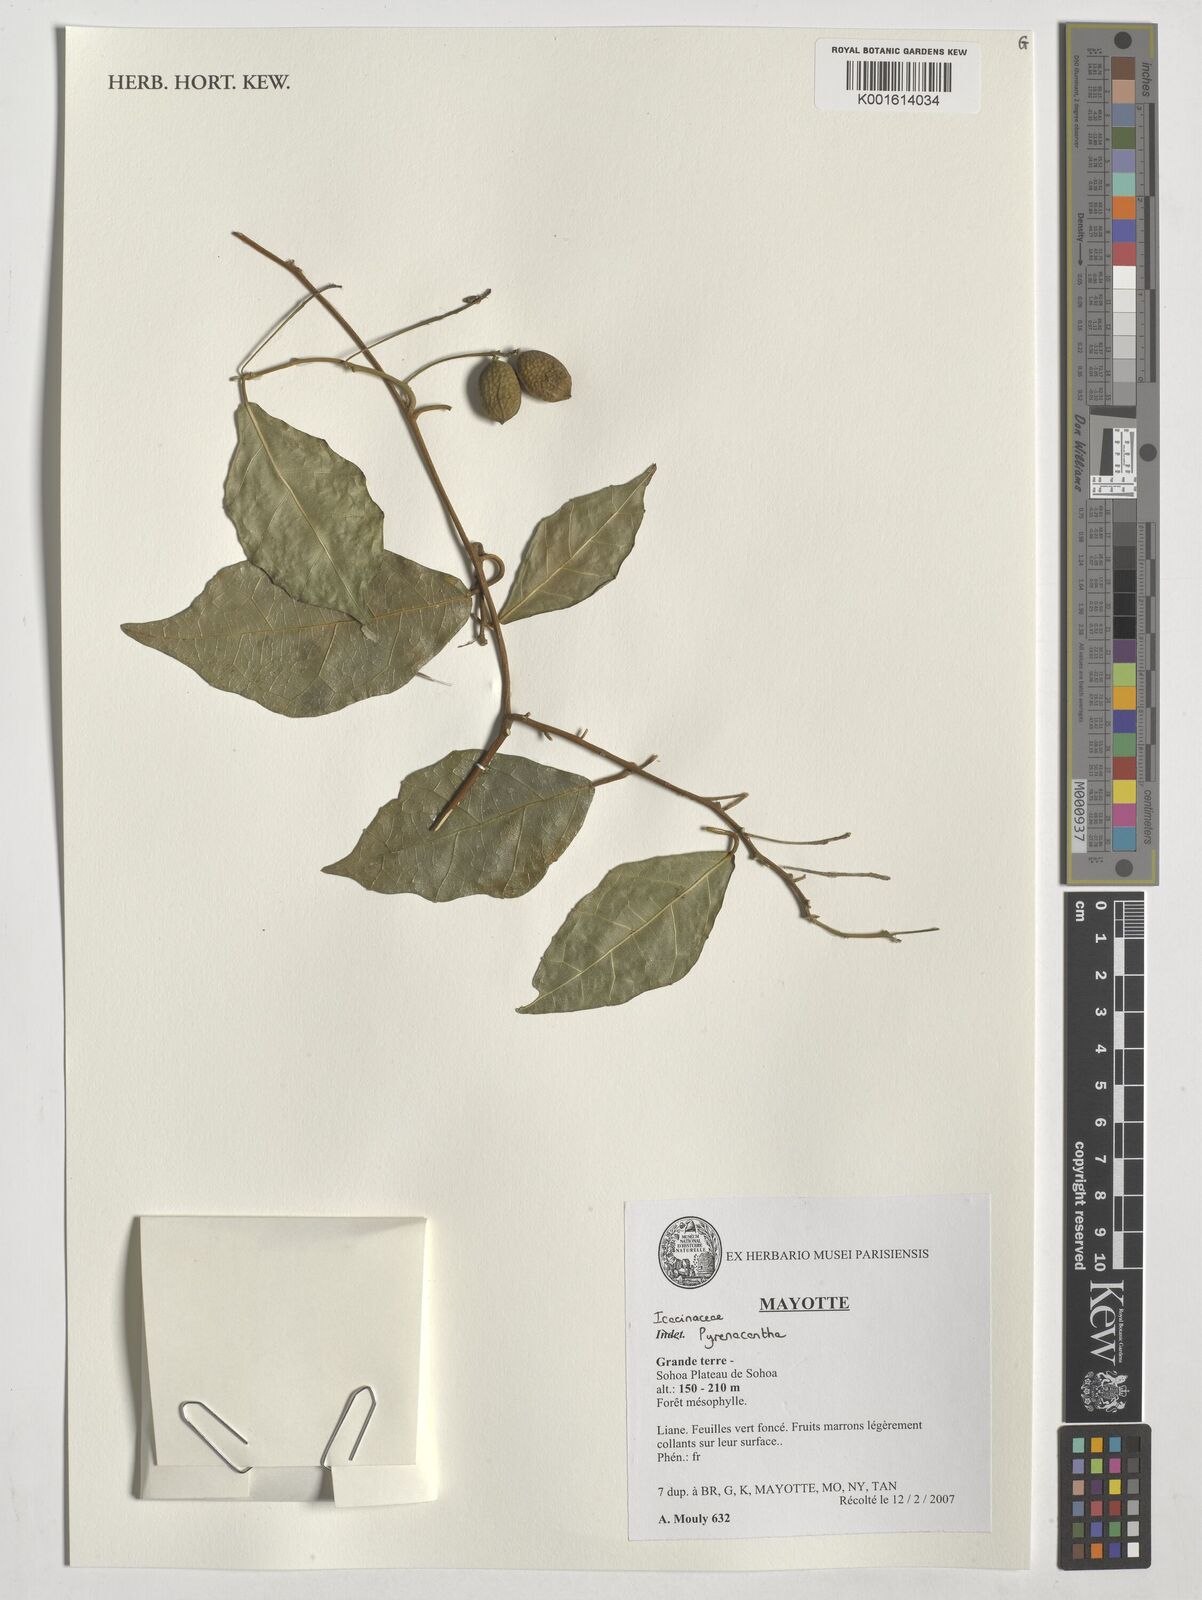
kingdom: Plantae
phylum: Tracheophyta
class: Magnoliopsida
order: Icacinales
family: Icacinaceae
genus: Pyrenacantha
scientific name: Pyrenacantha
